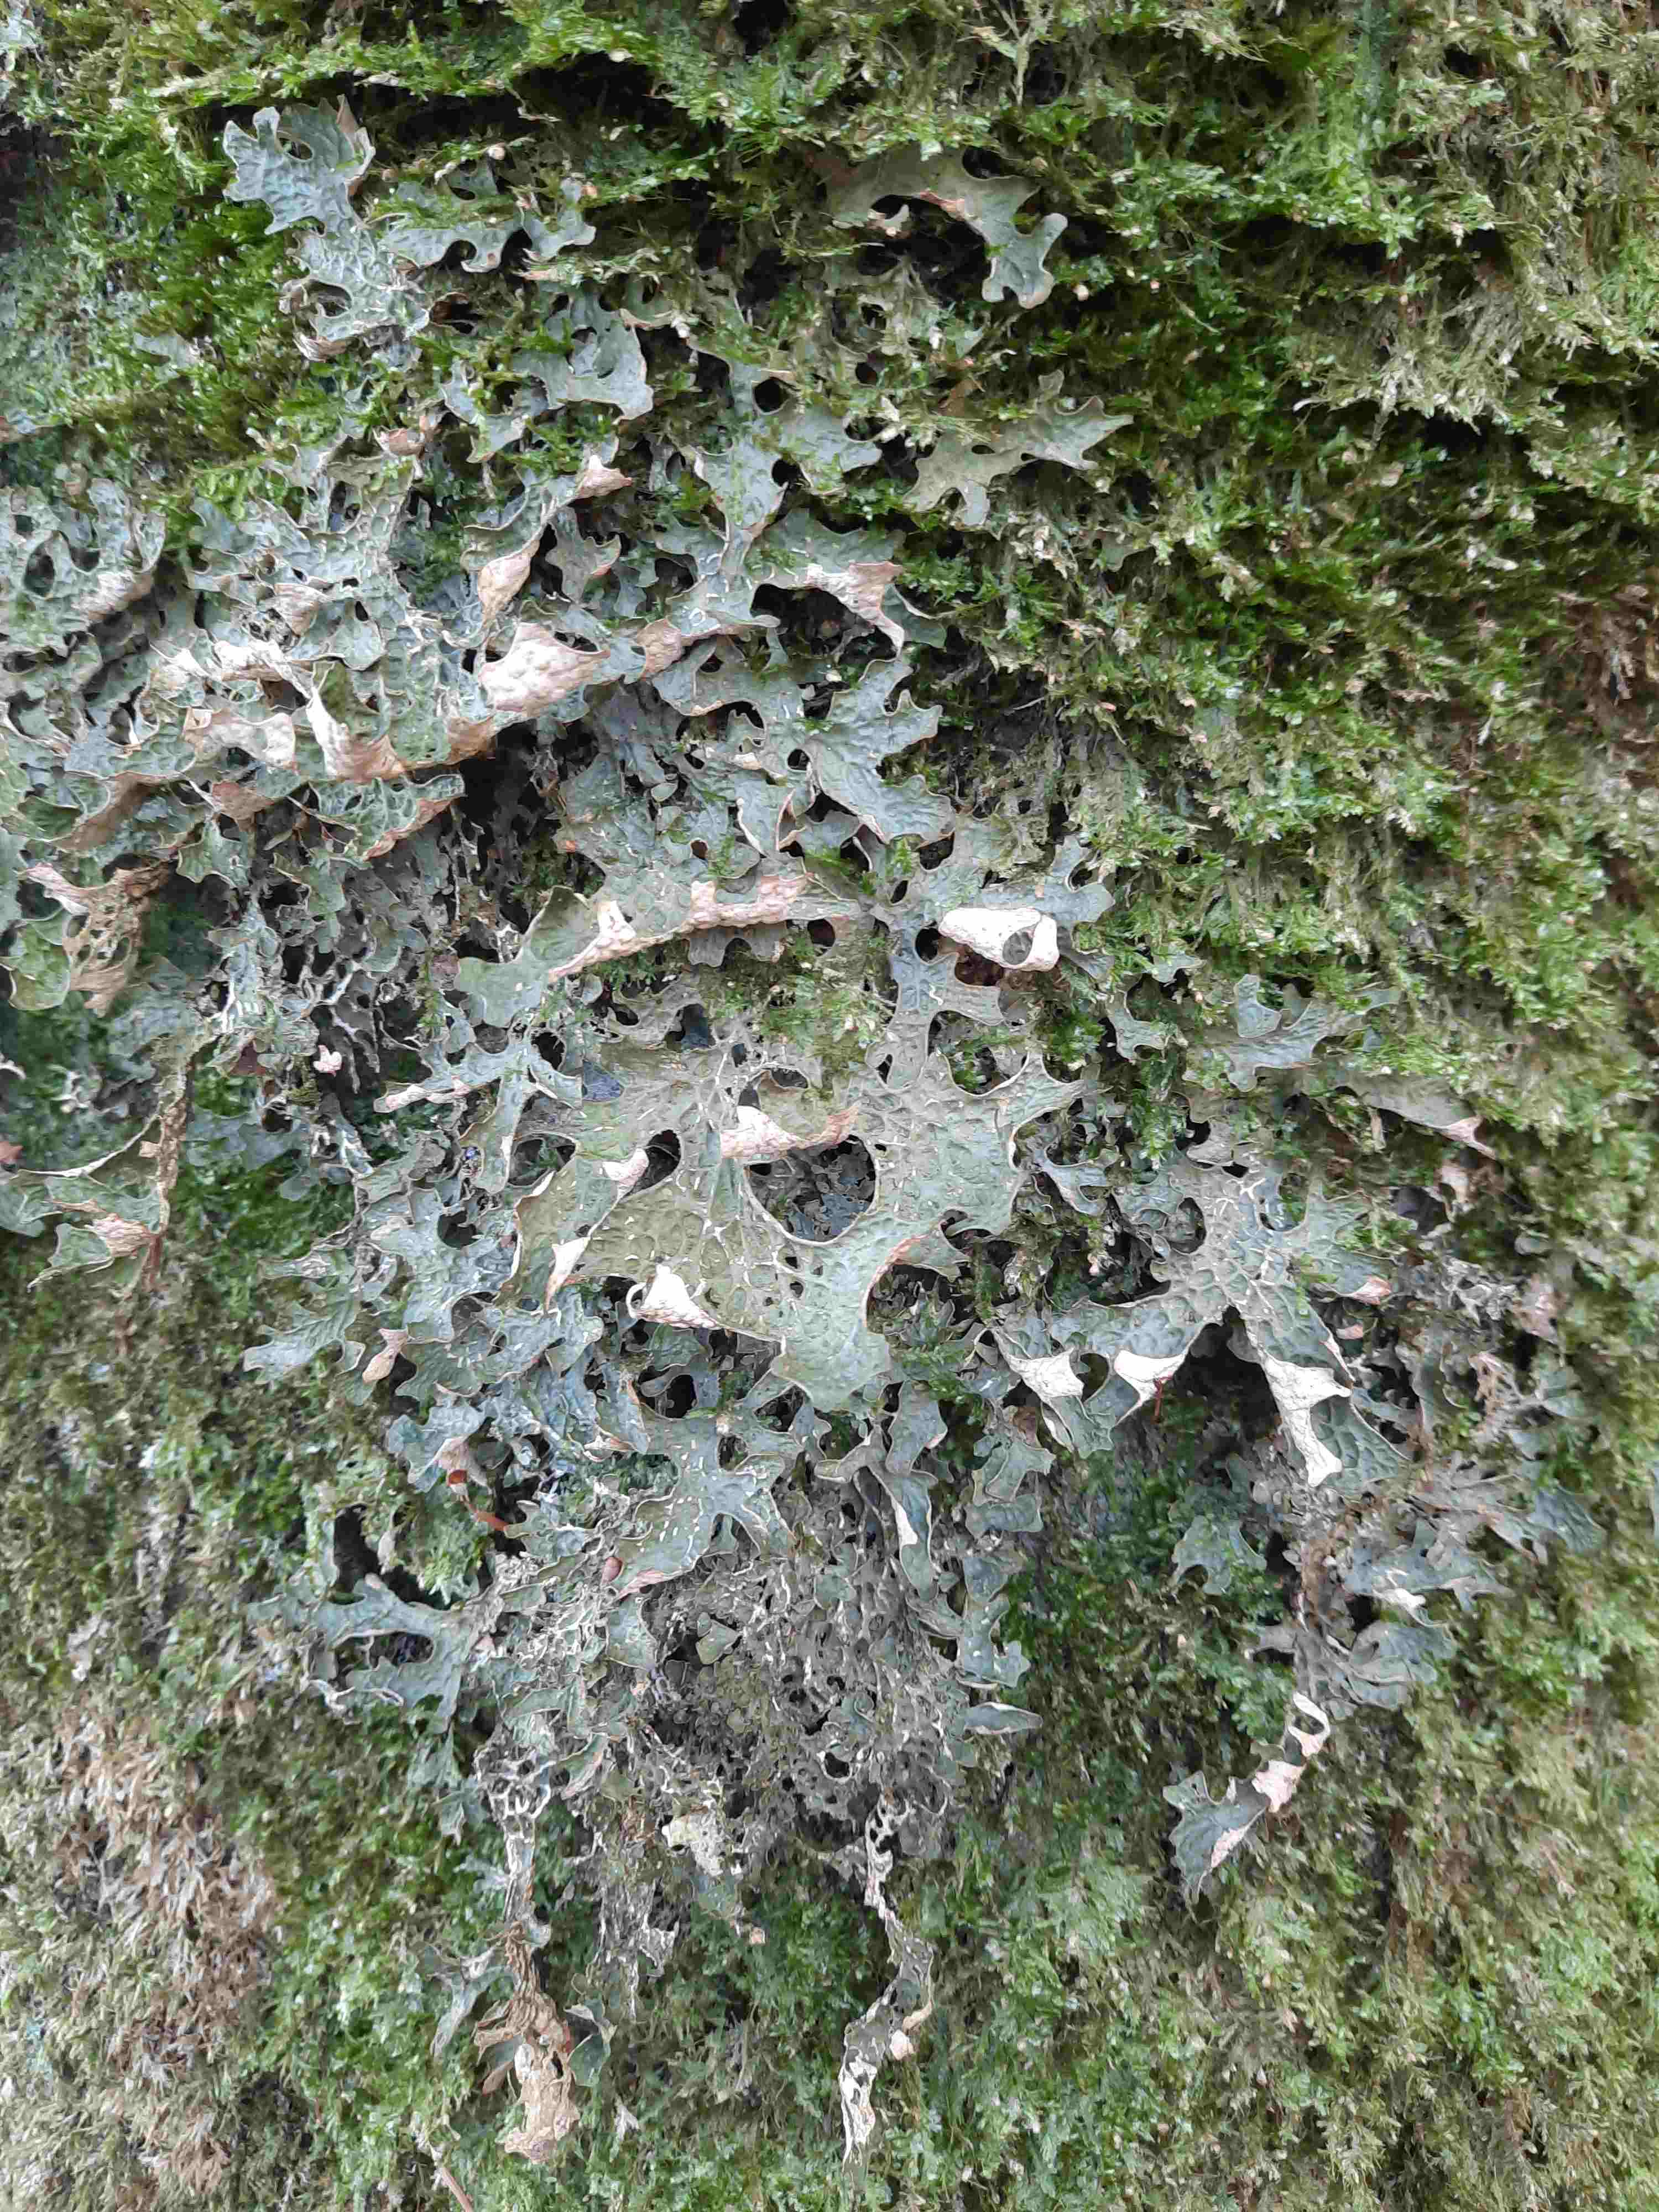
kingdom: Fungi
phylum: Ascomycota
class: Lecanoromycetes
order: Peltigerales
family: Lobariaceae
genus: Lobaria
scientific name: Lobaria pulmonaria
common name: almindelig lungelav
